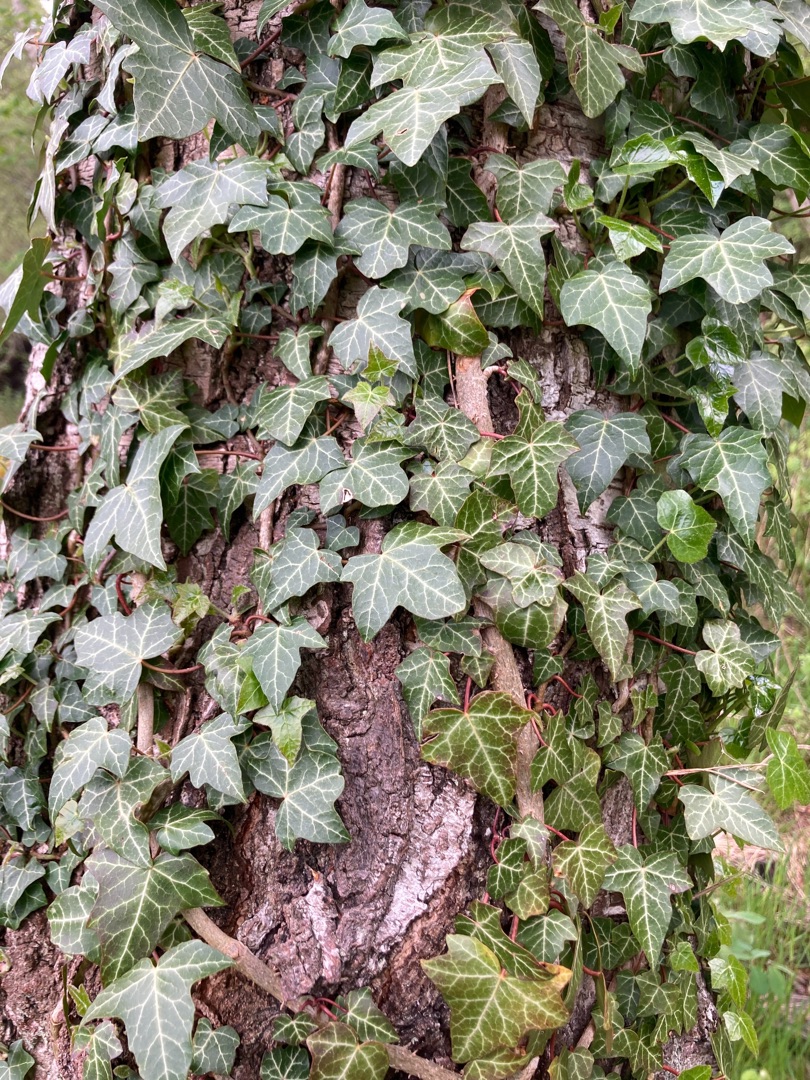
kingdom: Plantae
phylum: Tracheophyta
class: Magnoliopsida
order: Apiales
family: Araliaceae
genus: Hedera
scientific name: Hedera helix
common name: Vedbend
